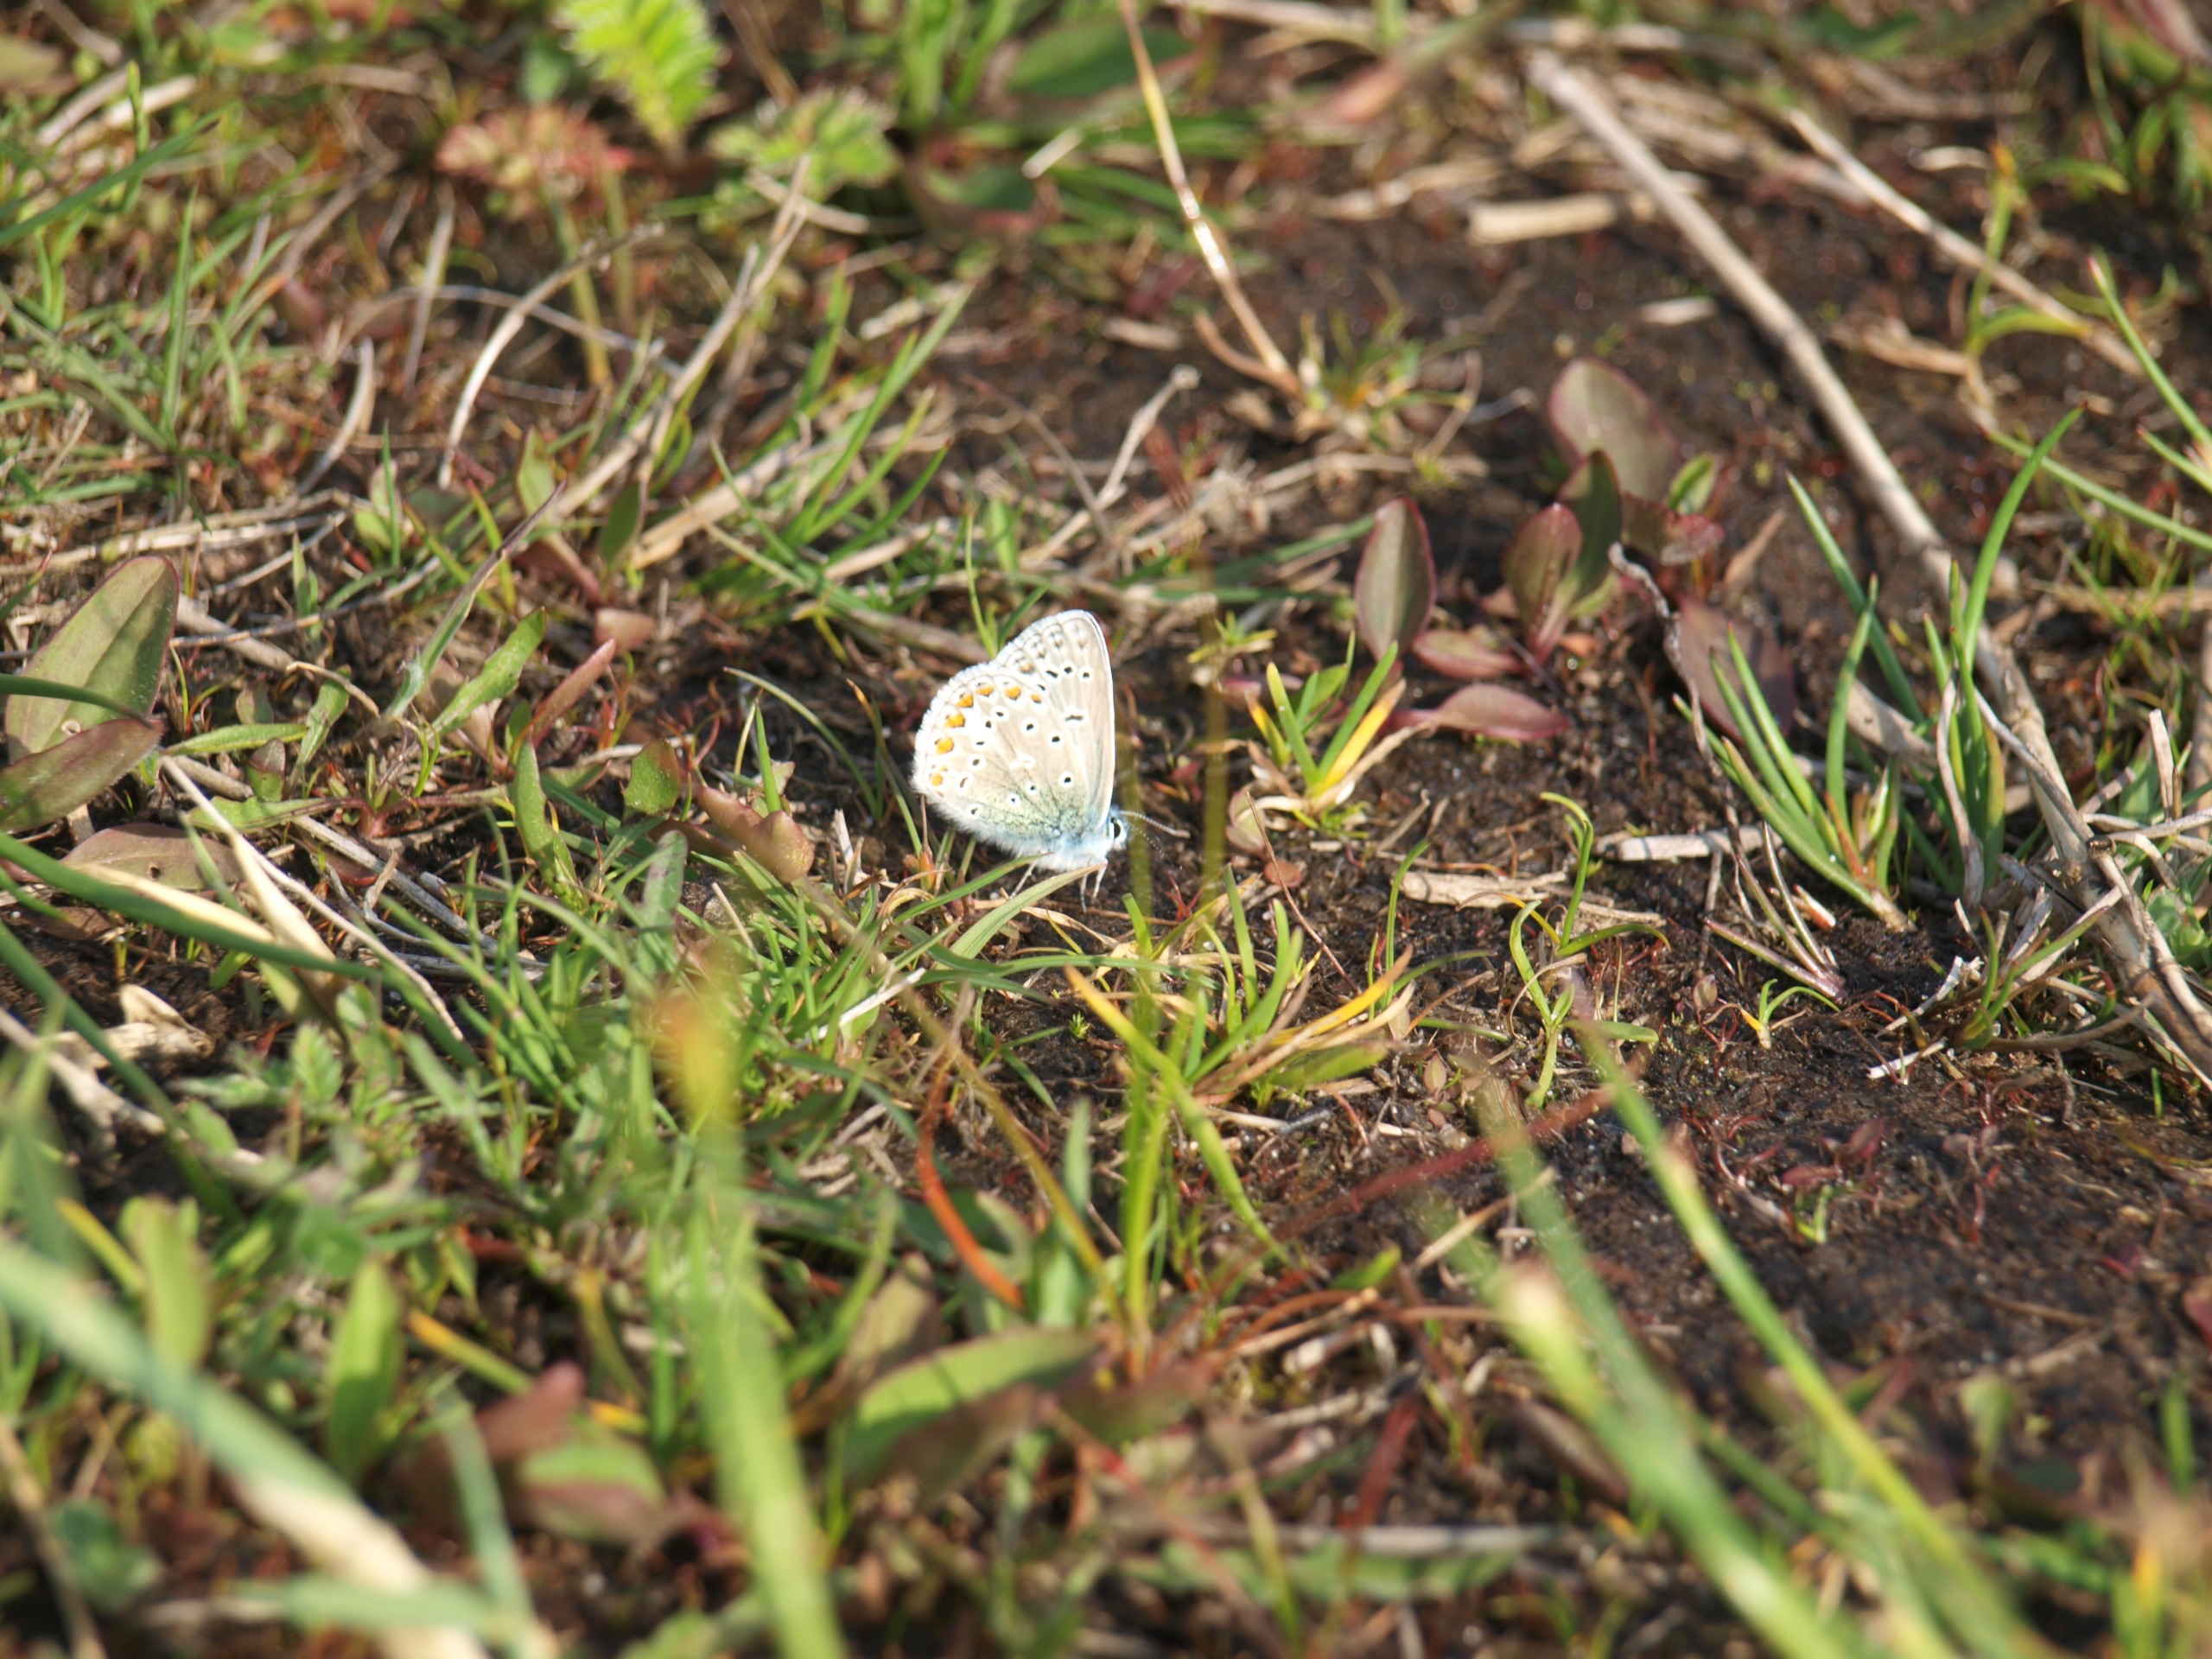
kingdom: Animalia
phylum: Arthropoda
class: Insecta
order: Lepidoptera
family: Lycaenidae
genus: Polyommatus
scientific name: Polyommatus icarus
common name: Almindelig blåfugl
